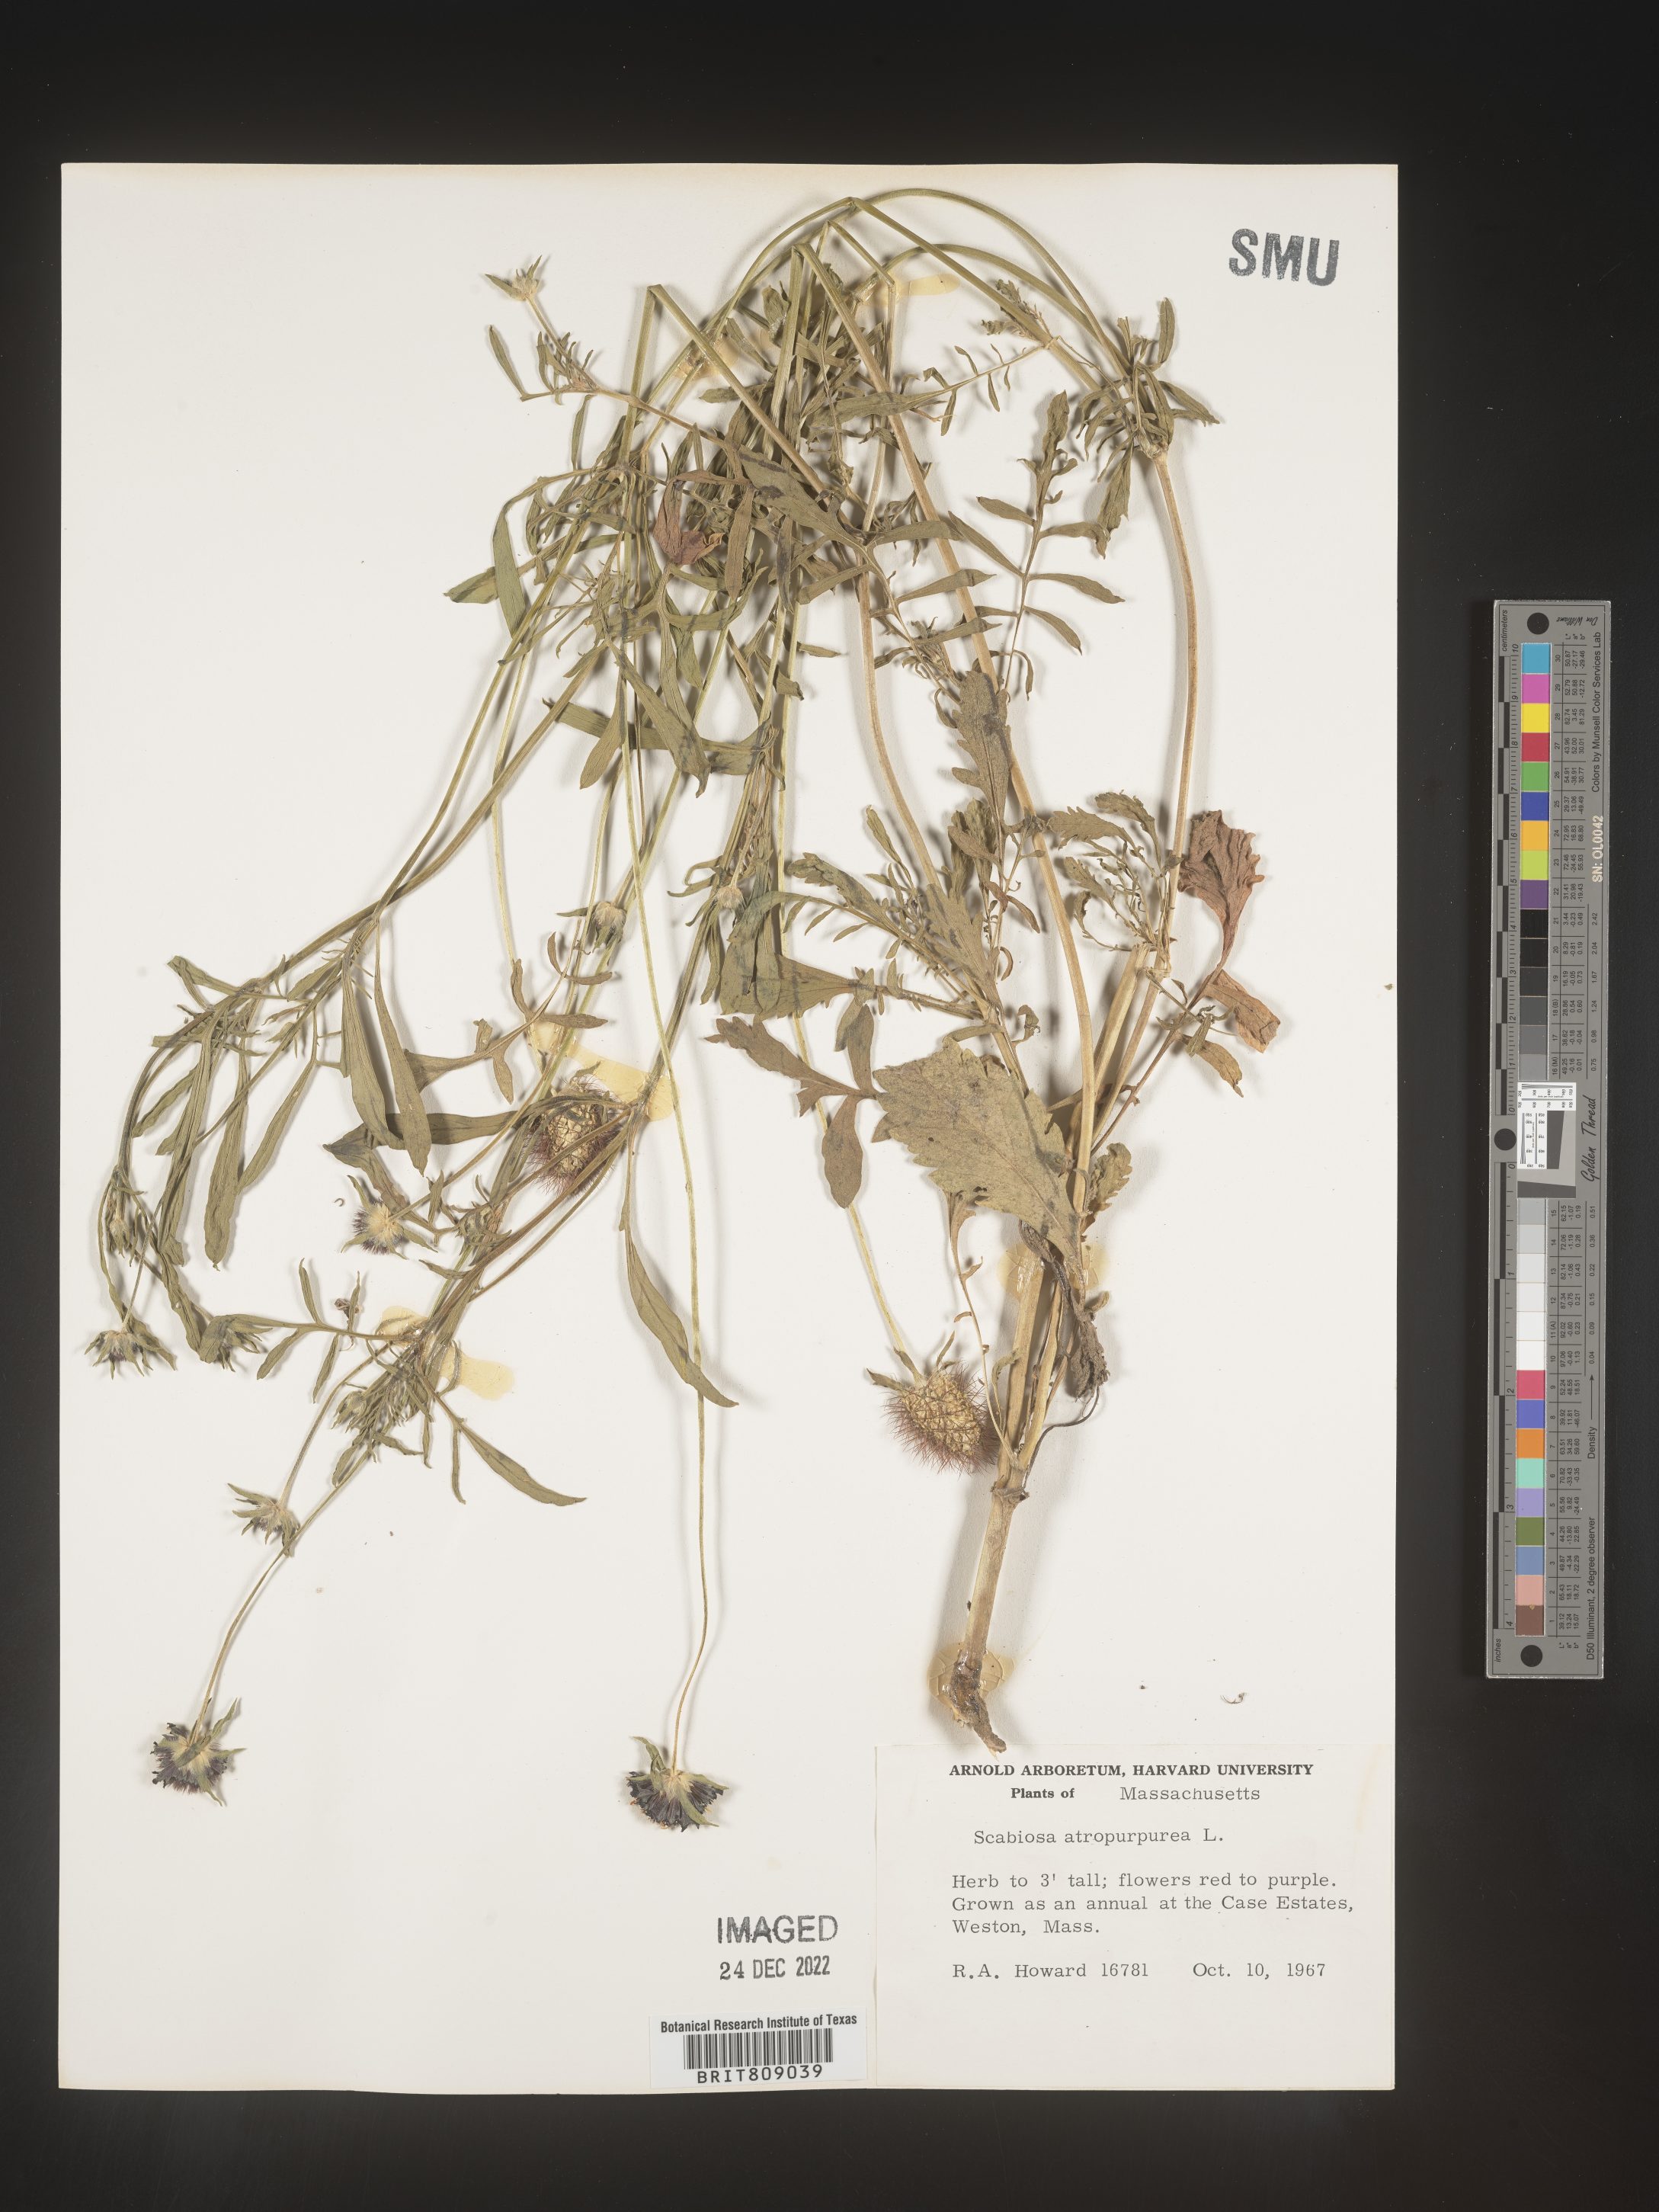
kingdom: Plantae
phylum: Tracheophyta
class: Magnoliopsida
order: Dipsacales
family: Caprifoliaceae
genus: Scabiosa
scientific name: Scabiosa
